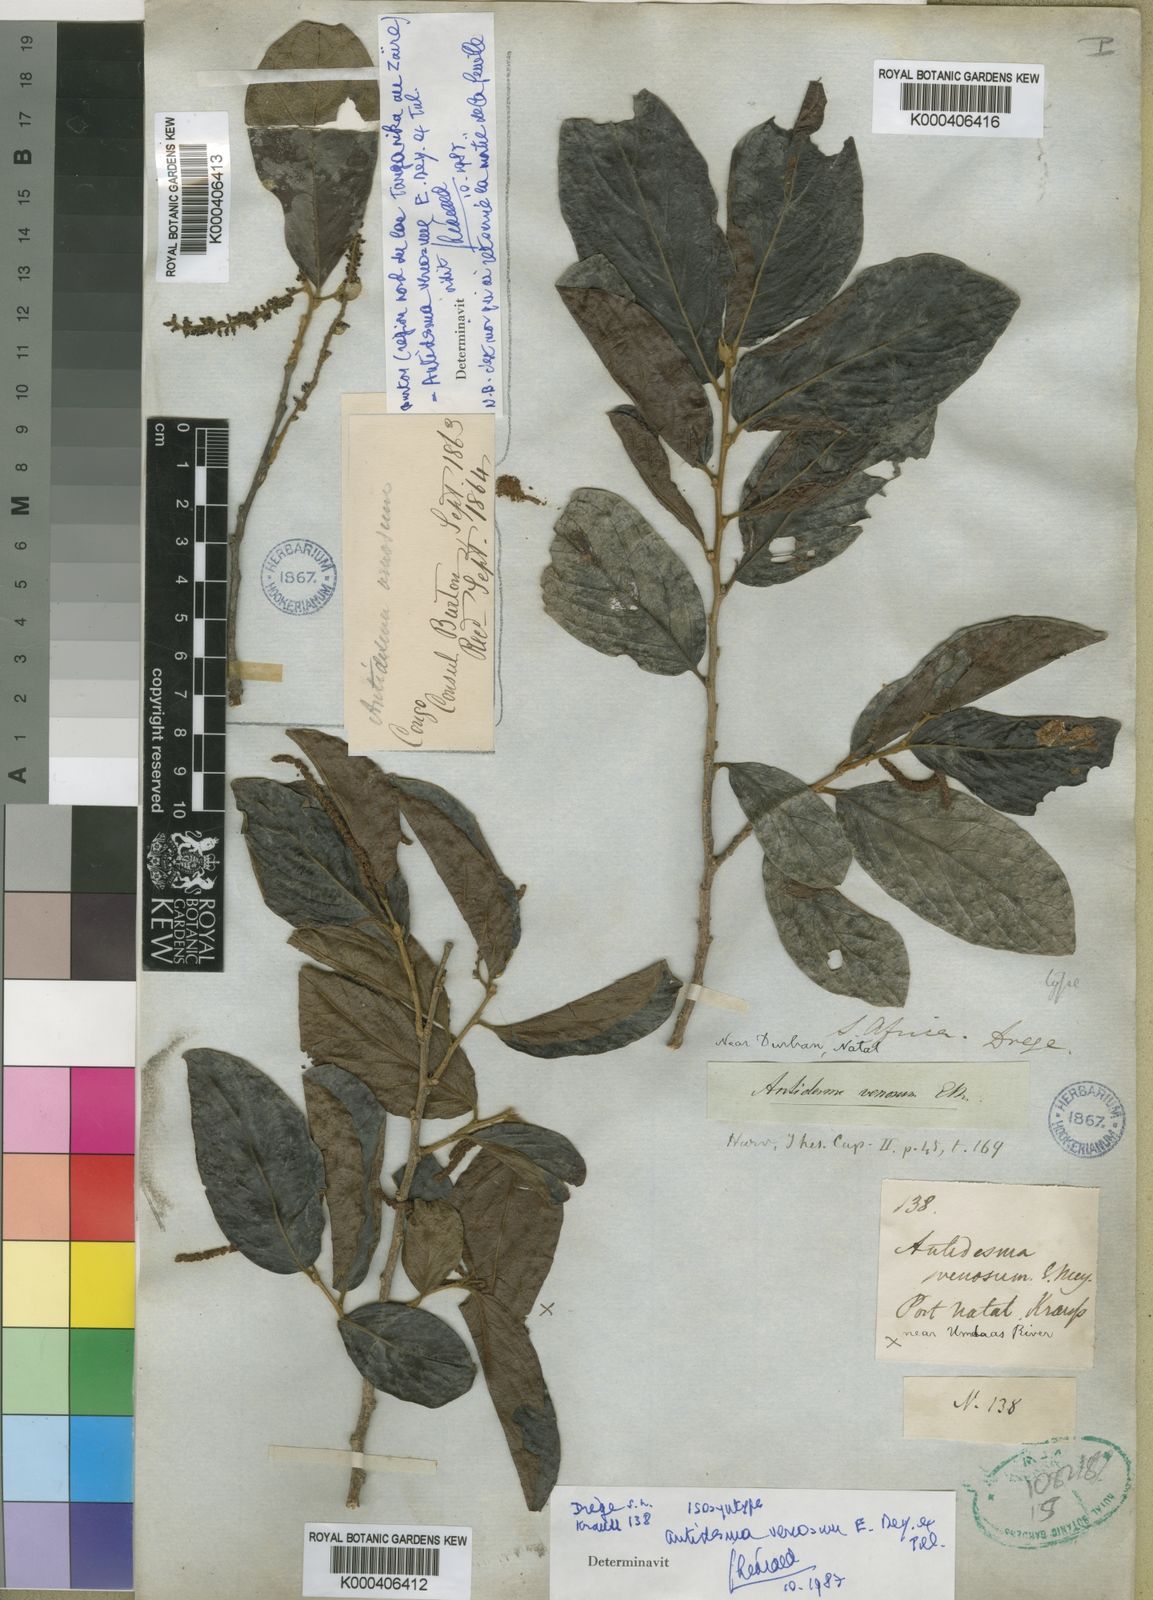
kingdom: Plantae
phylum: Tracheophyta
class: Magnoliopsida
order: Malpighiales
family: Phyllanthaceae
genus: Antidesma
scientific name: Antidesma venosum
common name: Tassel-berry
